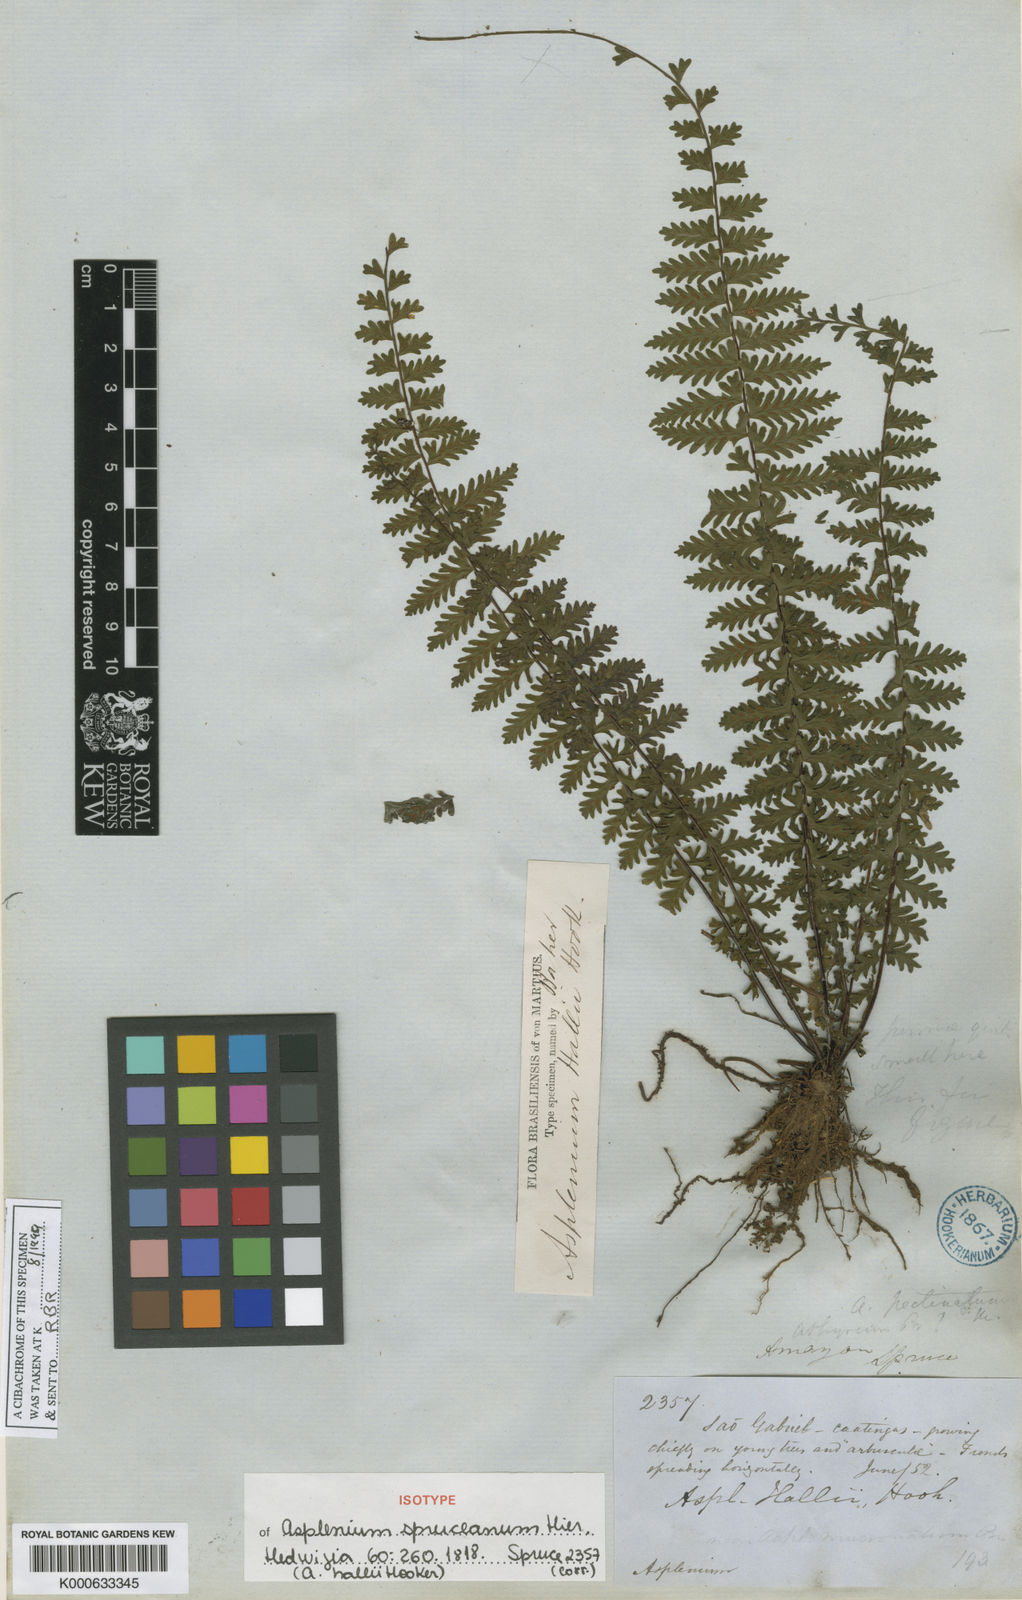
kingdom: Plantae
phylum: Tracheophyta
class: Polypodiopsida
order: Polypodiales
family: Aspleniaceae
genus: Asplenium
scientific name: Asplenium hallii
